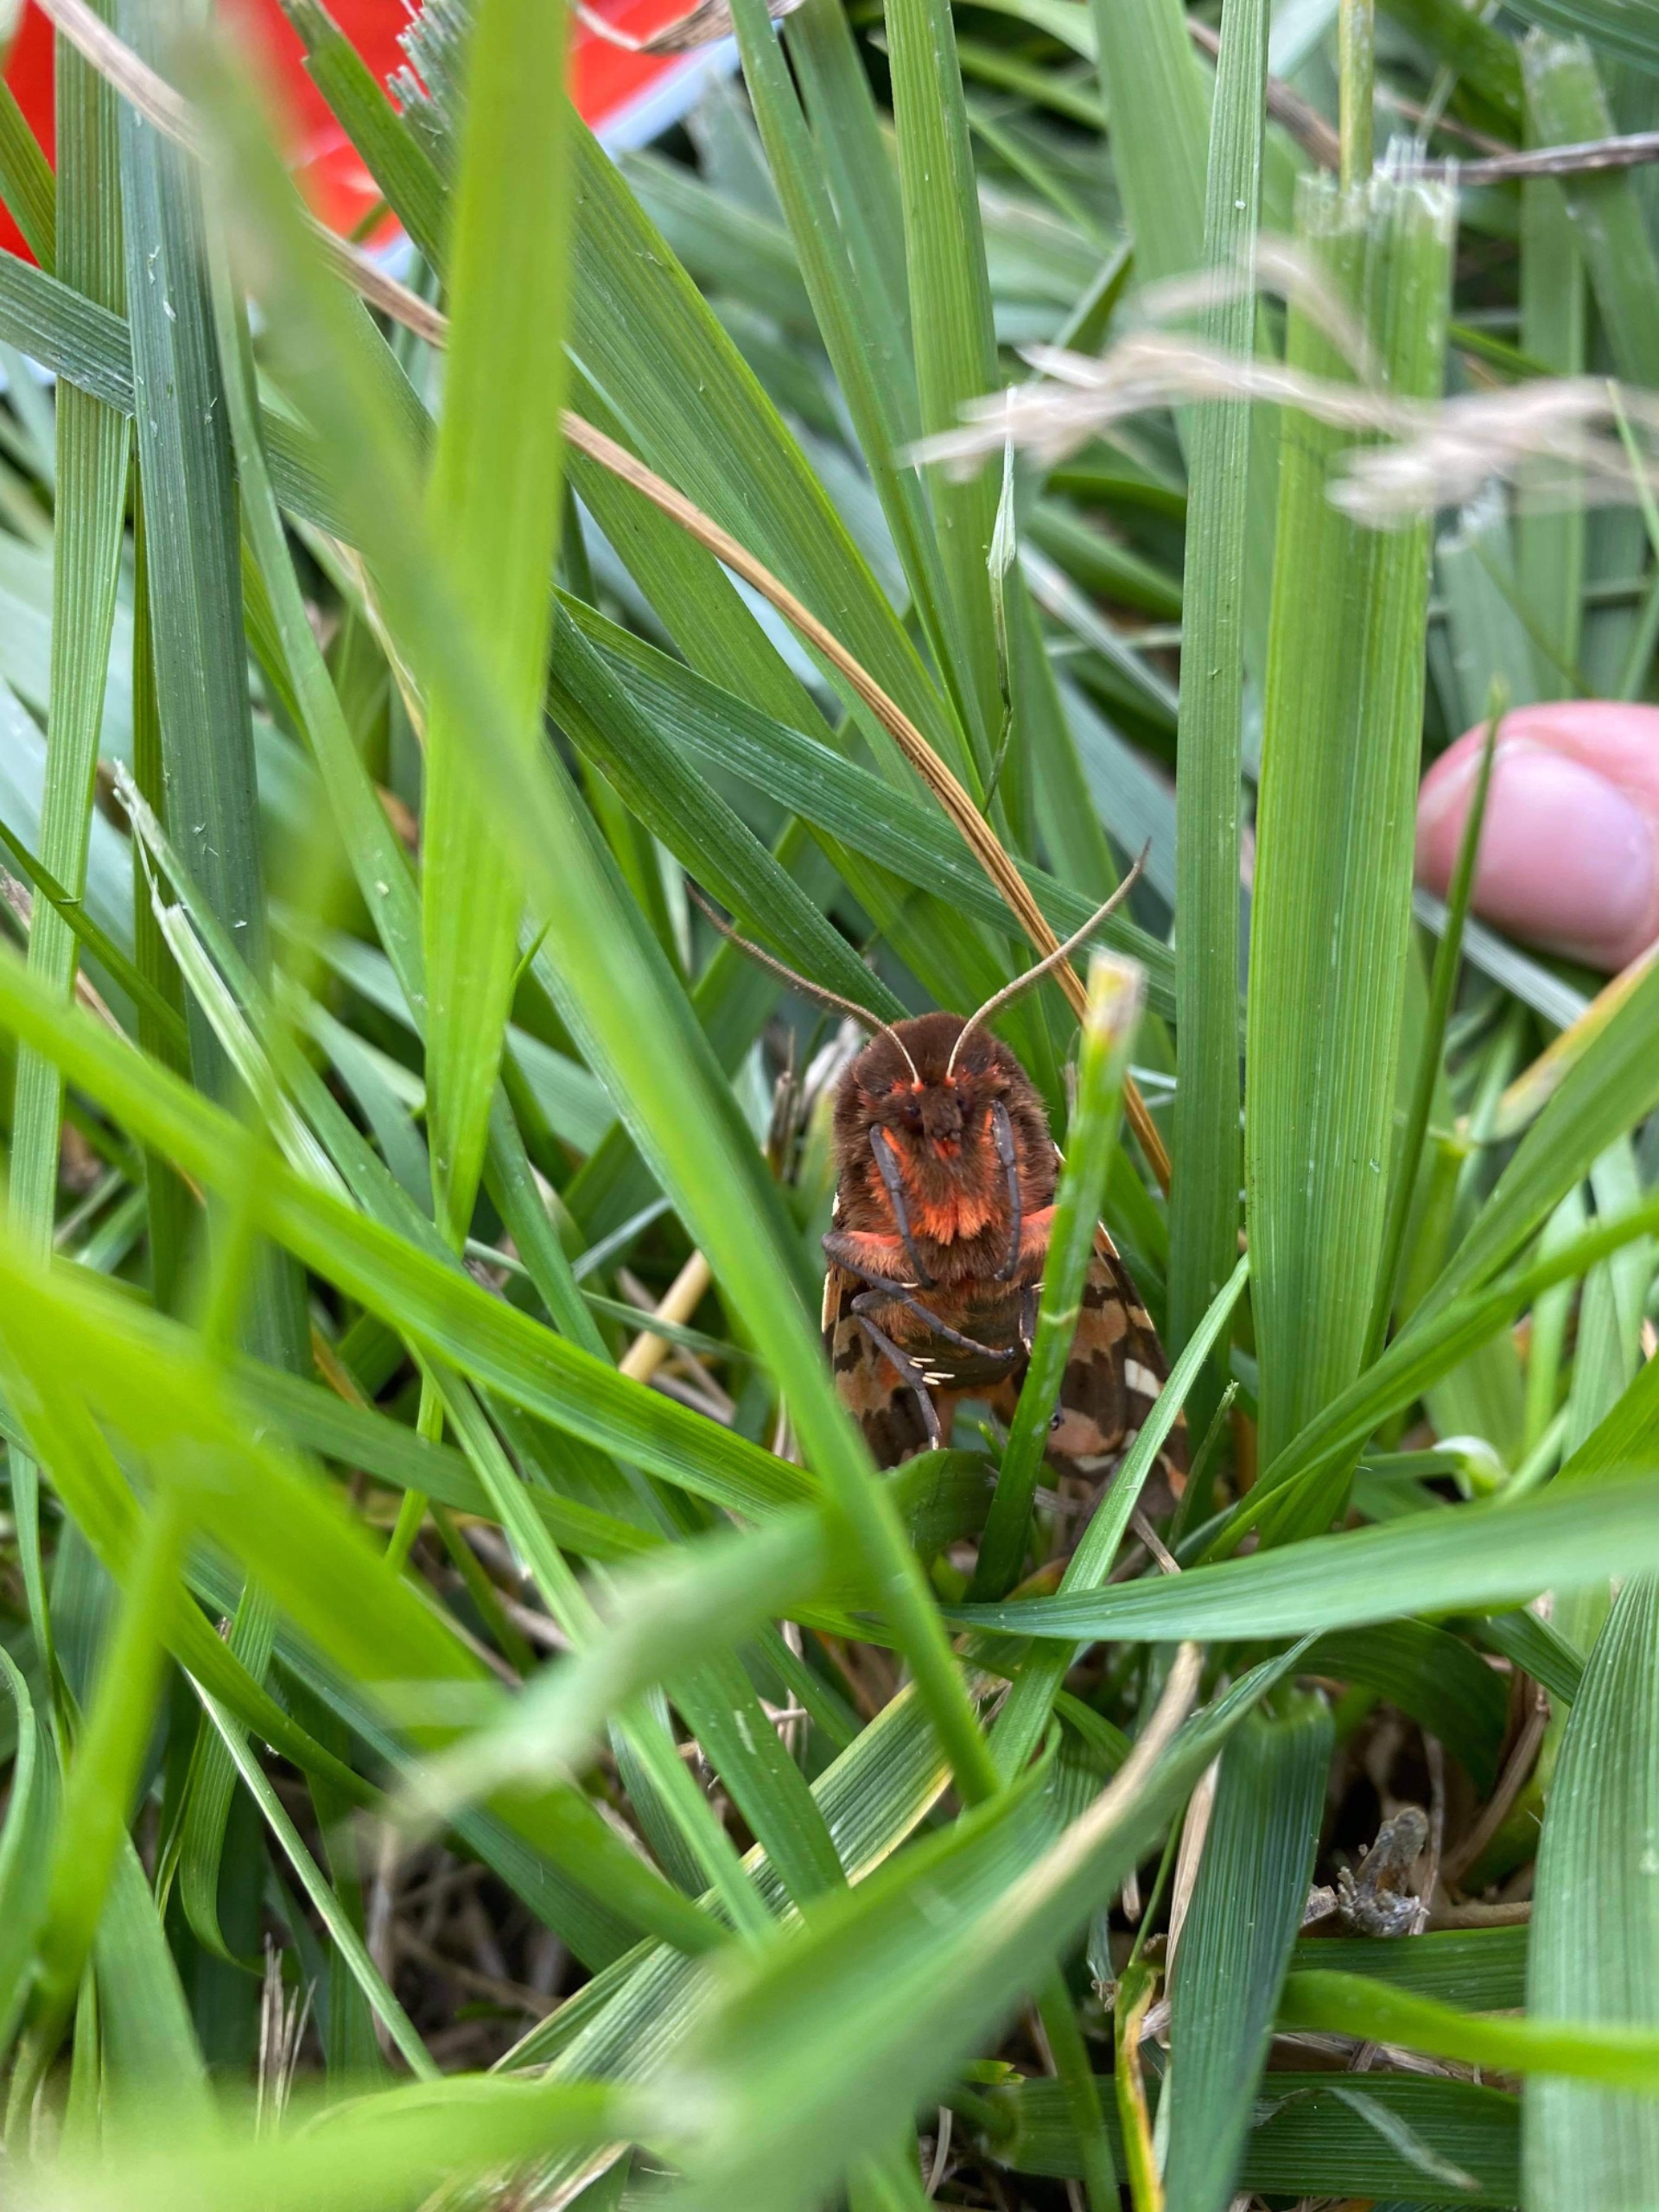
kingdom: Animalia
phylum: Arthropoda
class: Insecta
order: Lepidoptera
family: Erebidae
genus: Arctia
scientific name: Arctia caja
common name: Brun bjørn
